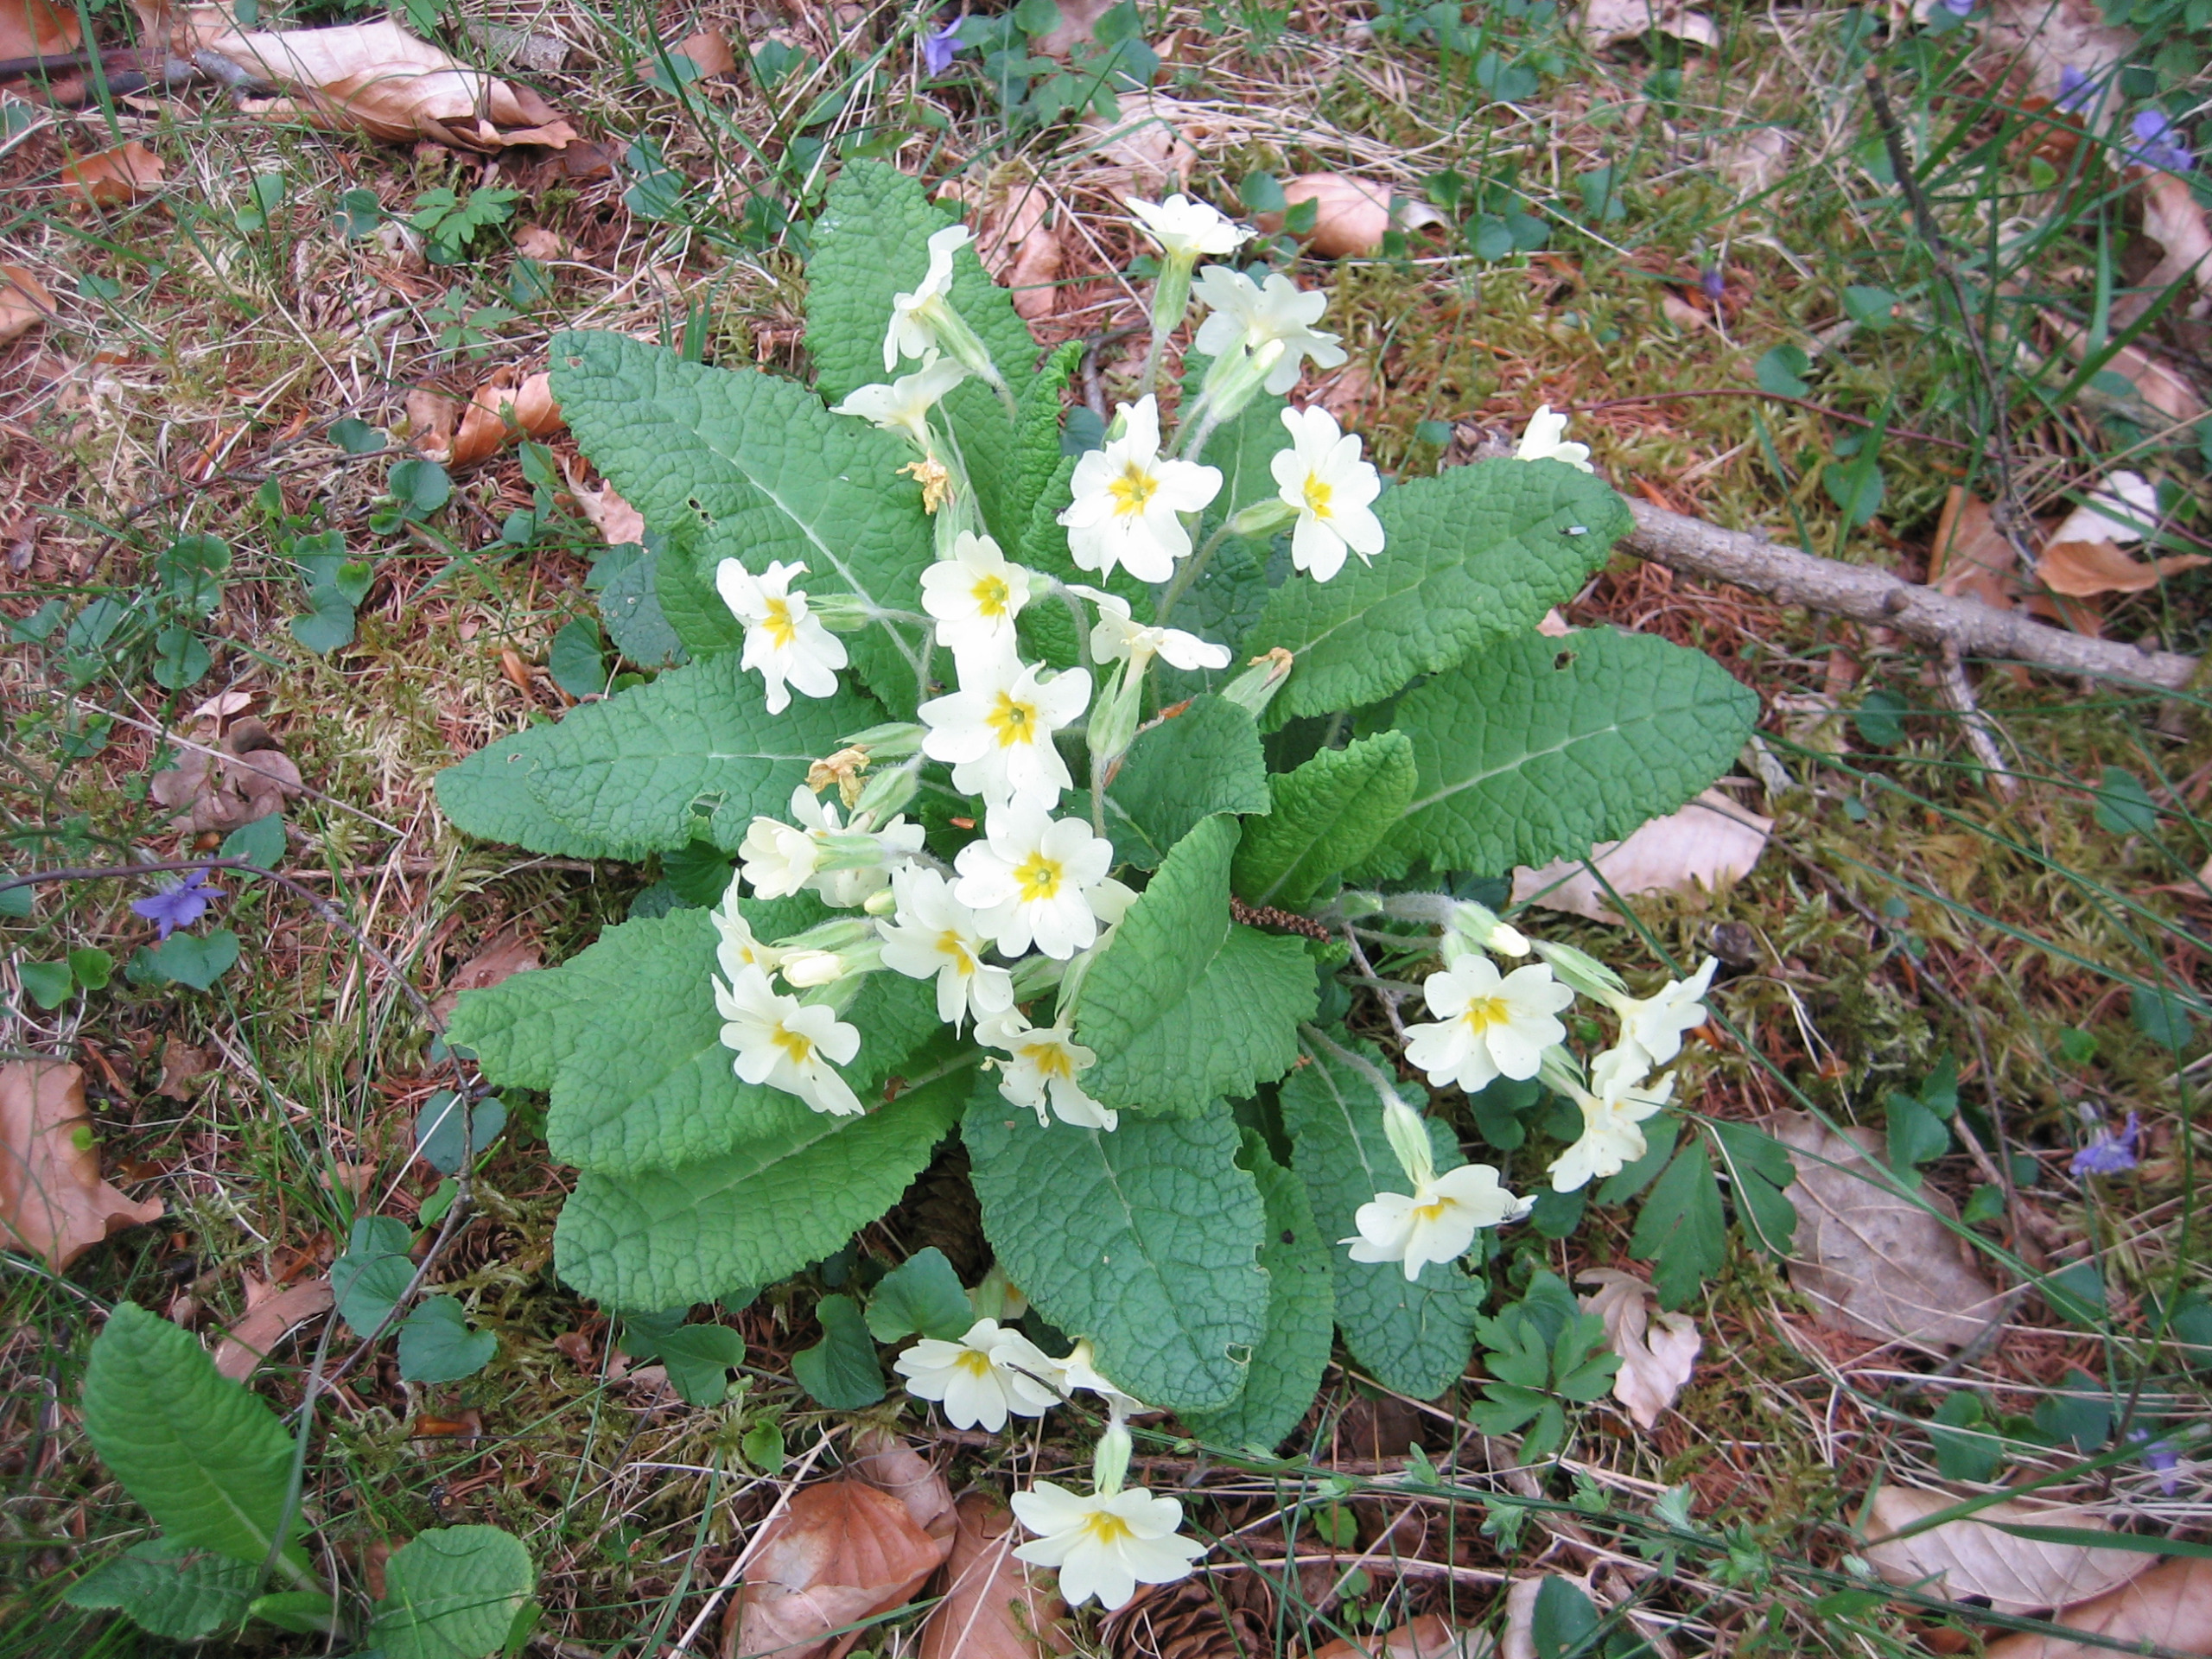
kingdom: Plantae
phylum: Tracheophyta
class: Magnoliopsida
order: Ericales
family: Primulaceae
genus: Primula
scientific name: Primula vulgaris
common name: Storblomstret kodriver
